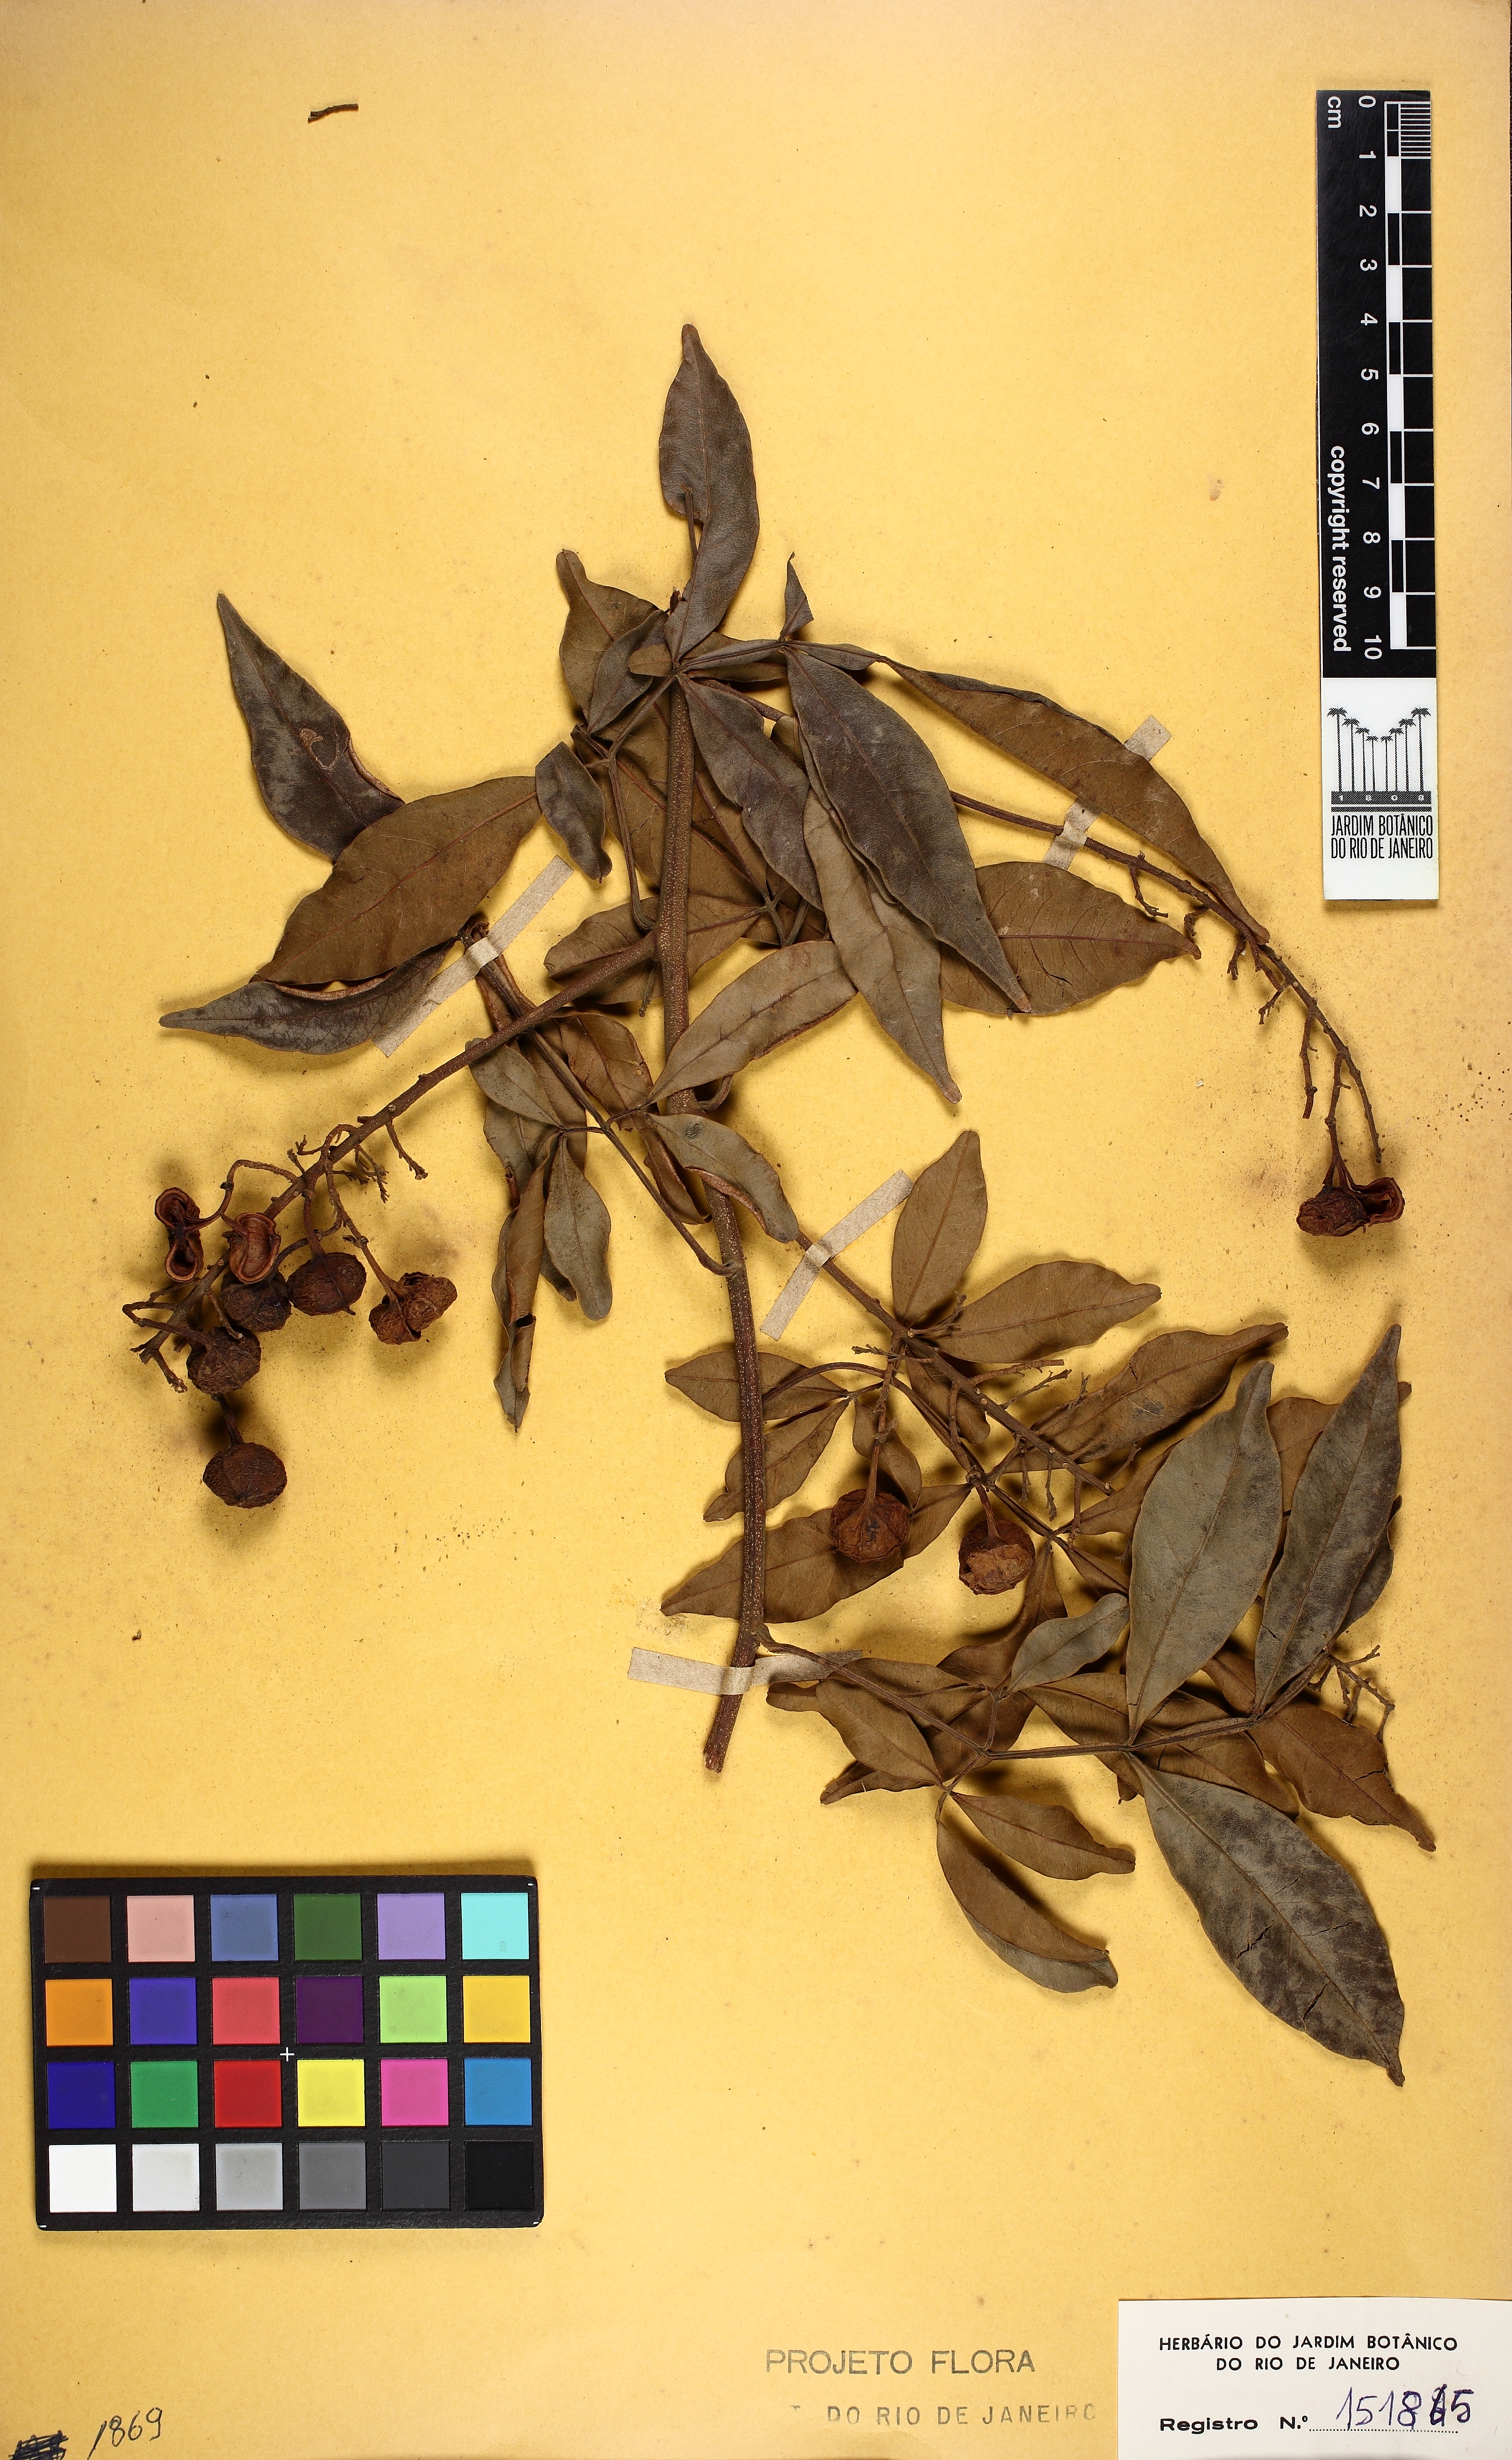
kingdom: Plantae
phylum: Tracheophyta
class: Magnoliopsida
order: Sapindales
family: Sapindaceae
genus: Paullinia
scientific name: Paullinia carpopodea
